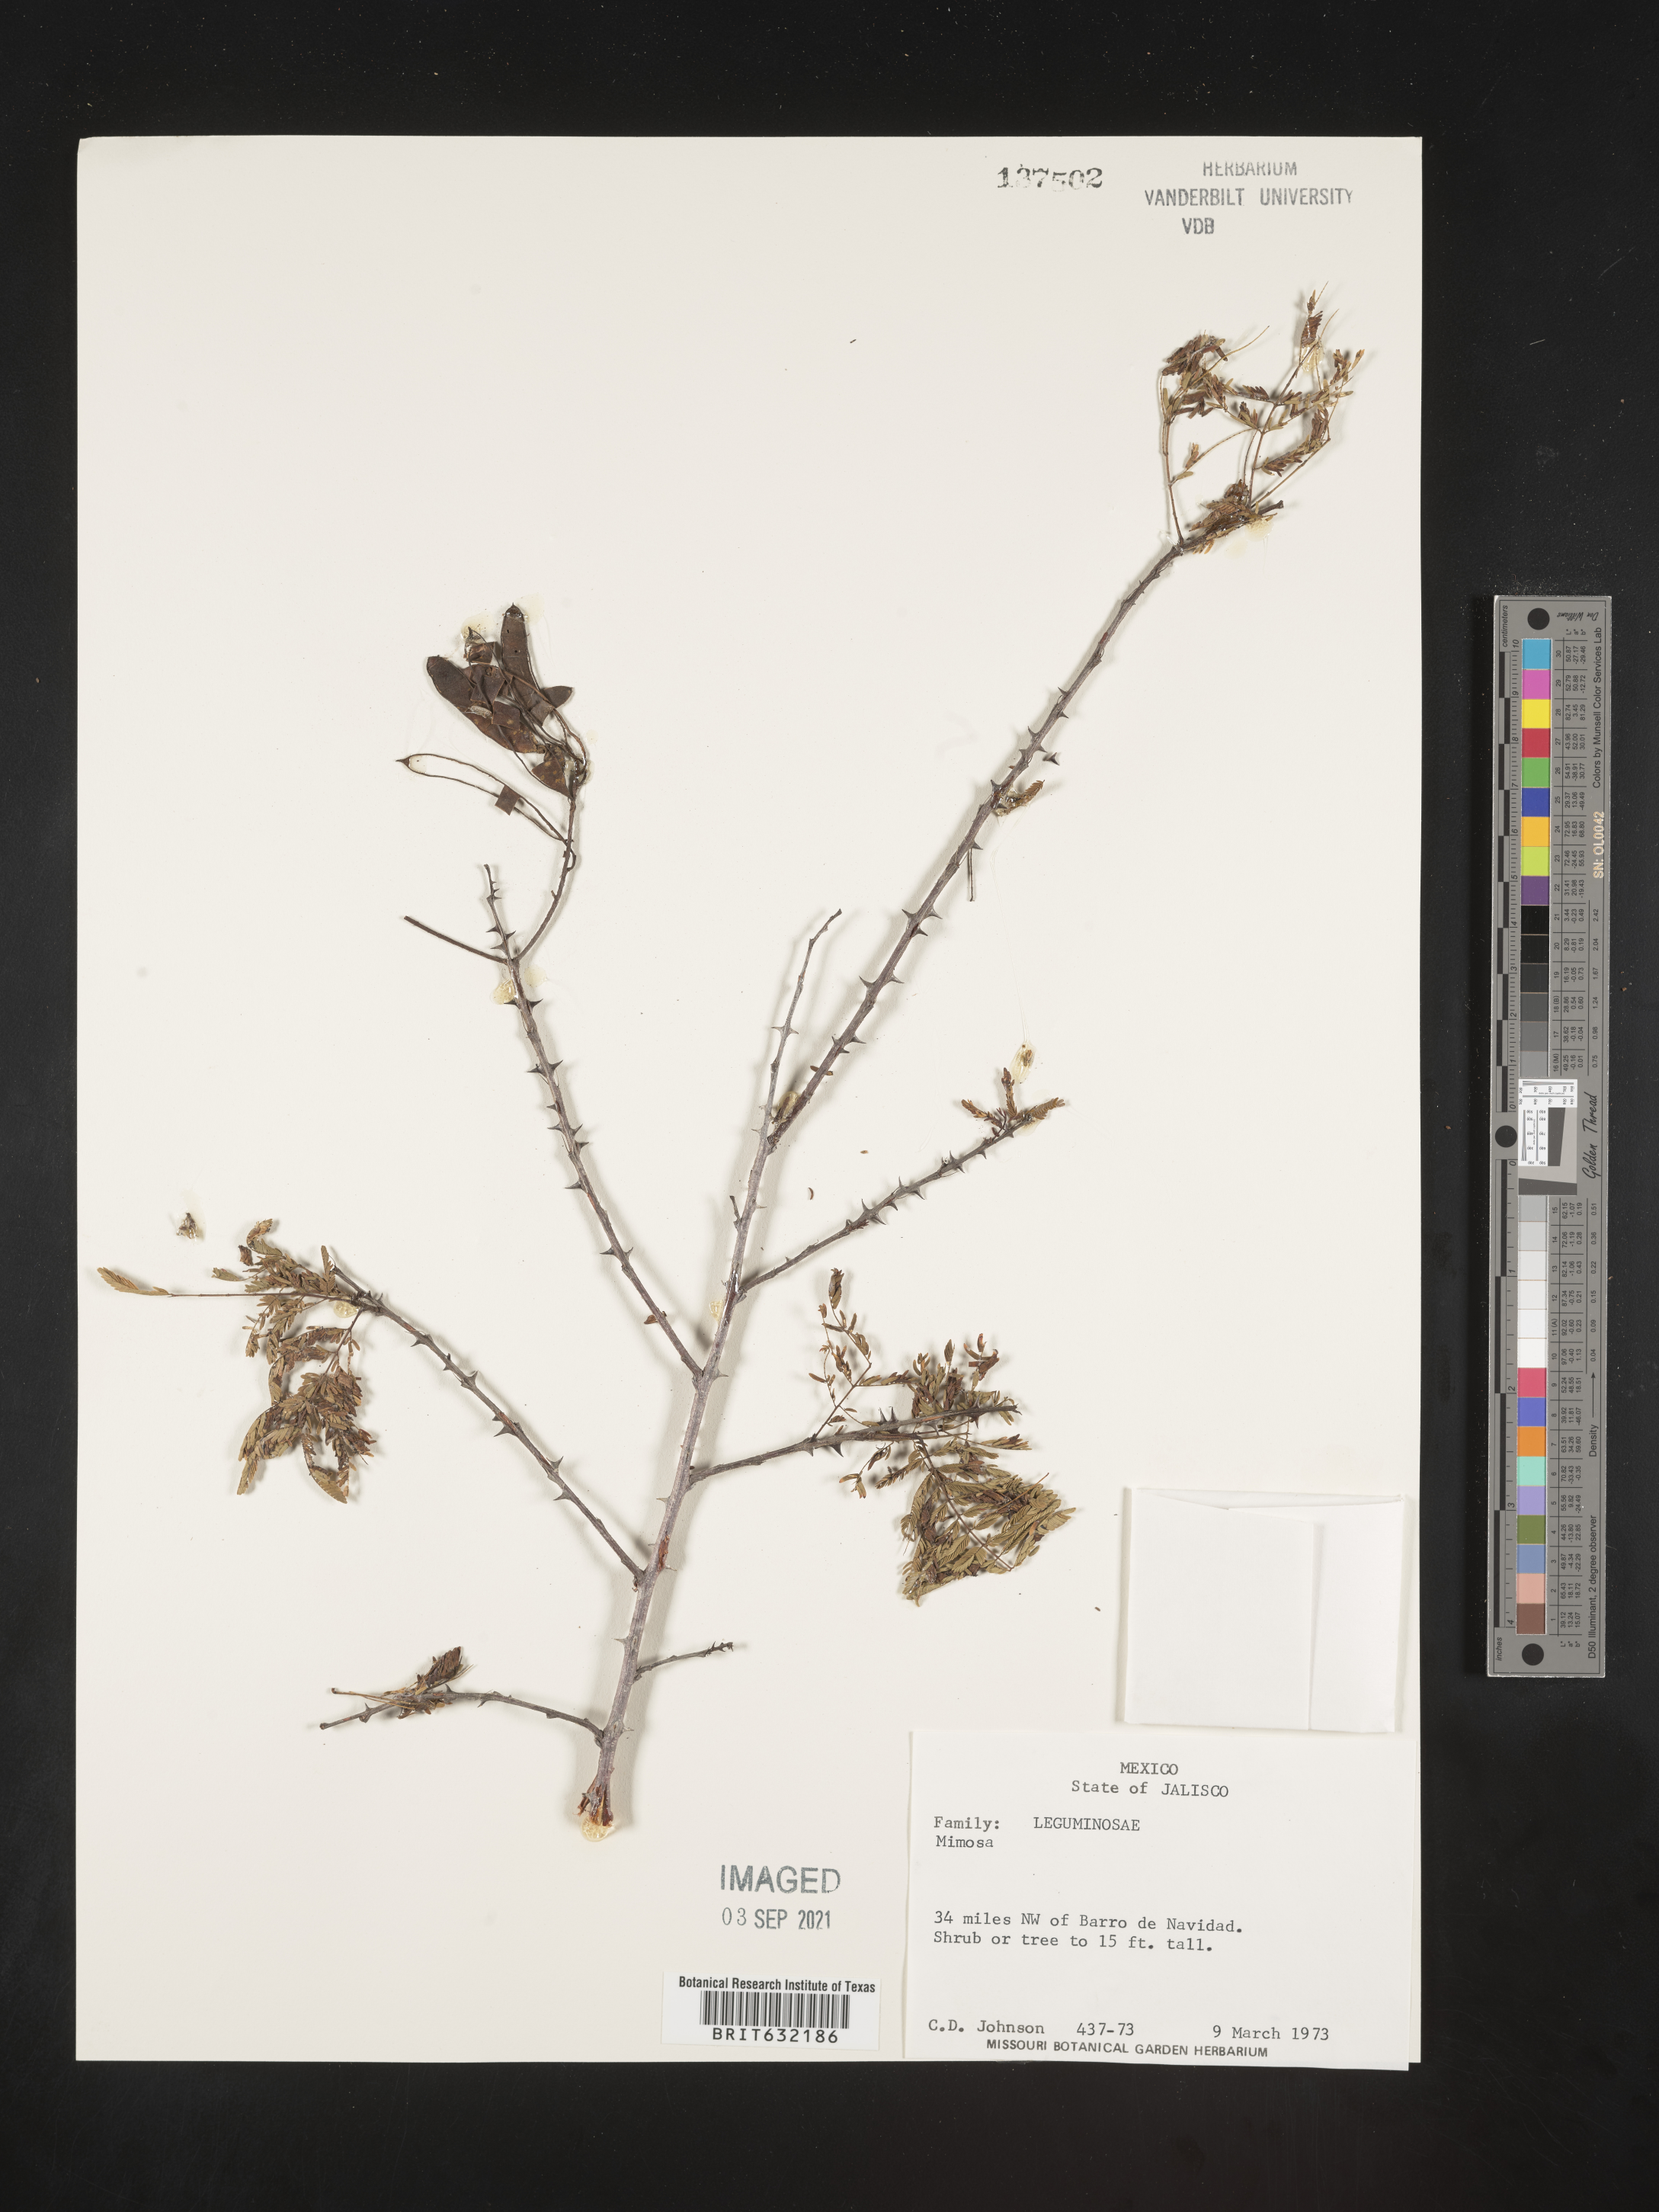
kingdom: Plantae
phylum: Tracheophyta
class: Magnoliopsida
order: Fabales
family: Fabaceae
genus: Mimosa
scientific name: Mimosa
